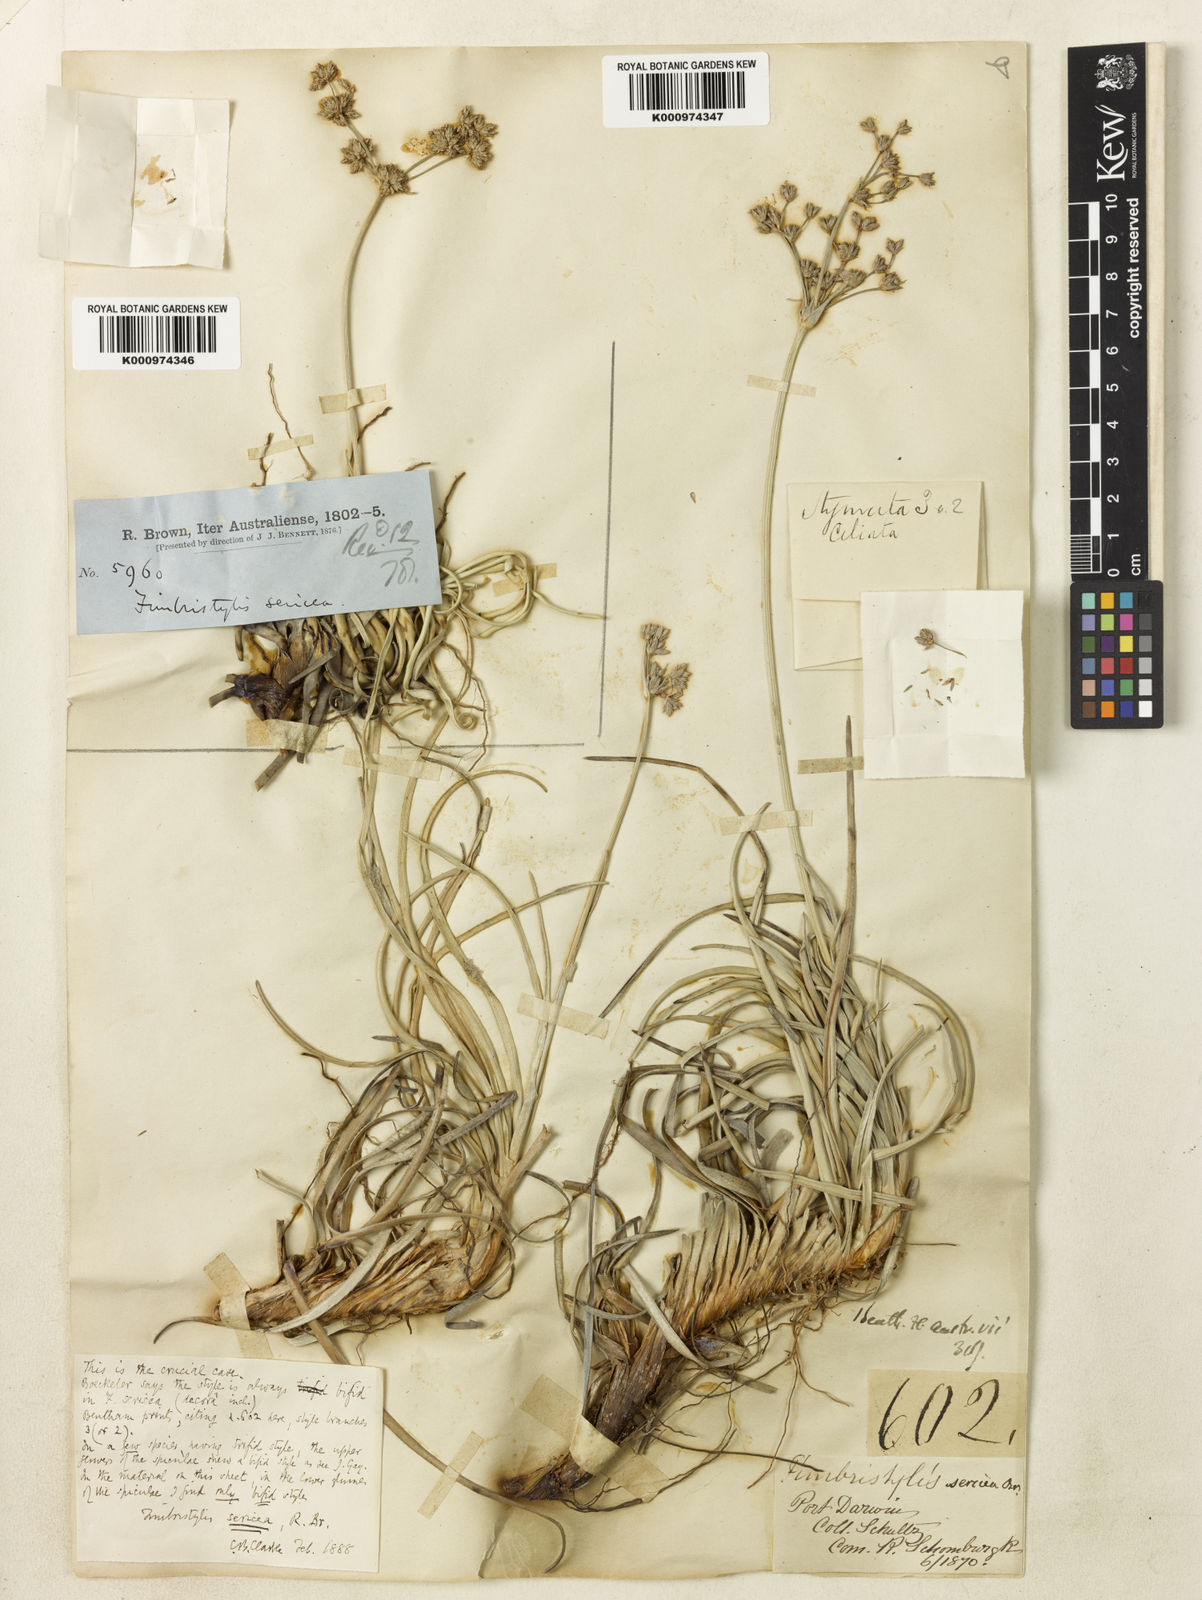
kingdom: Plantae
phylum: Tracheophyta
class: Liliopsida
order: Poales
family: Cyperaceae
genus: Fimbristylis
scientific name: Fimbristylis sericea
